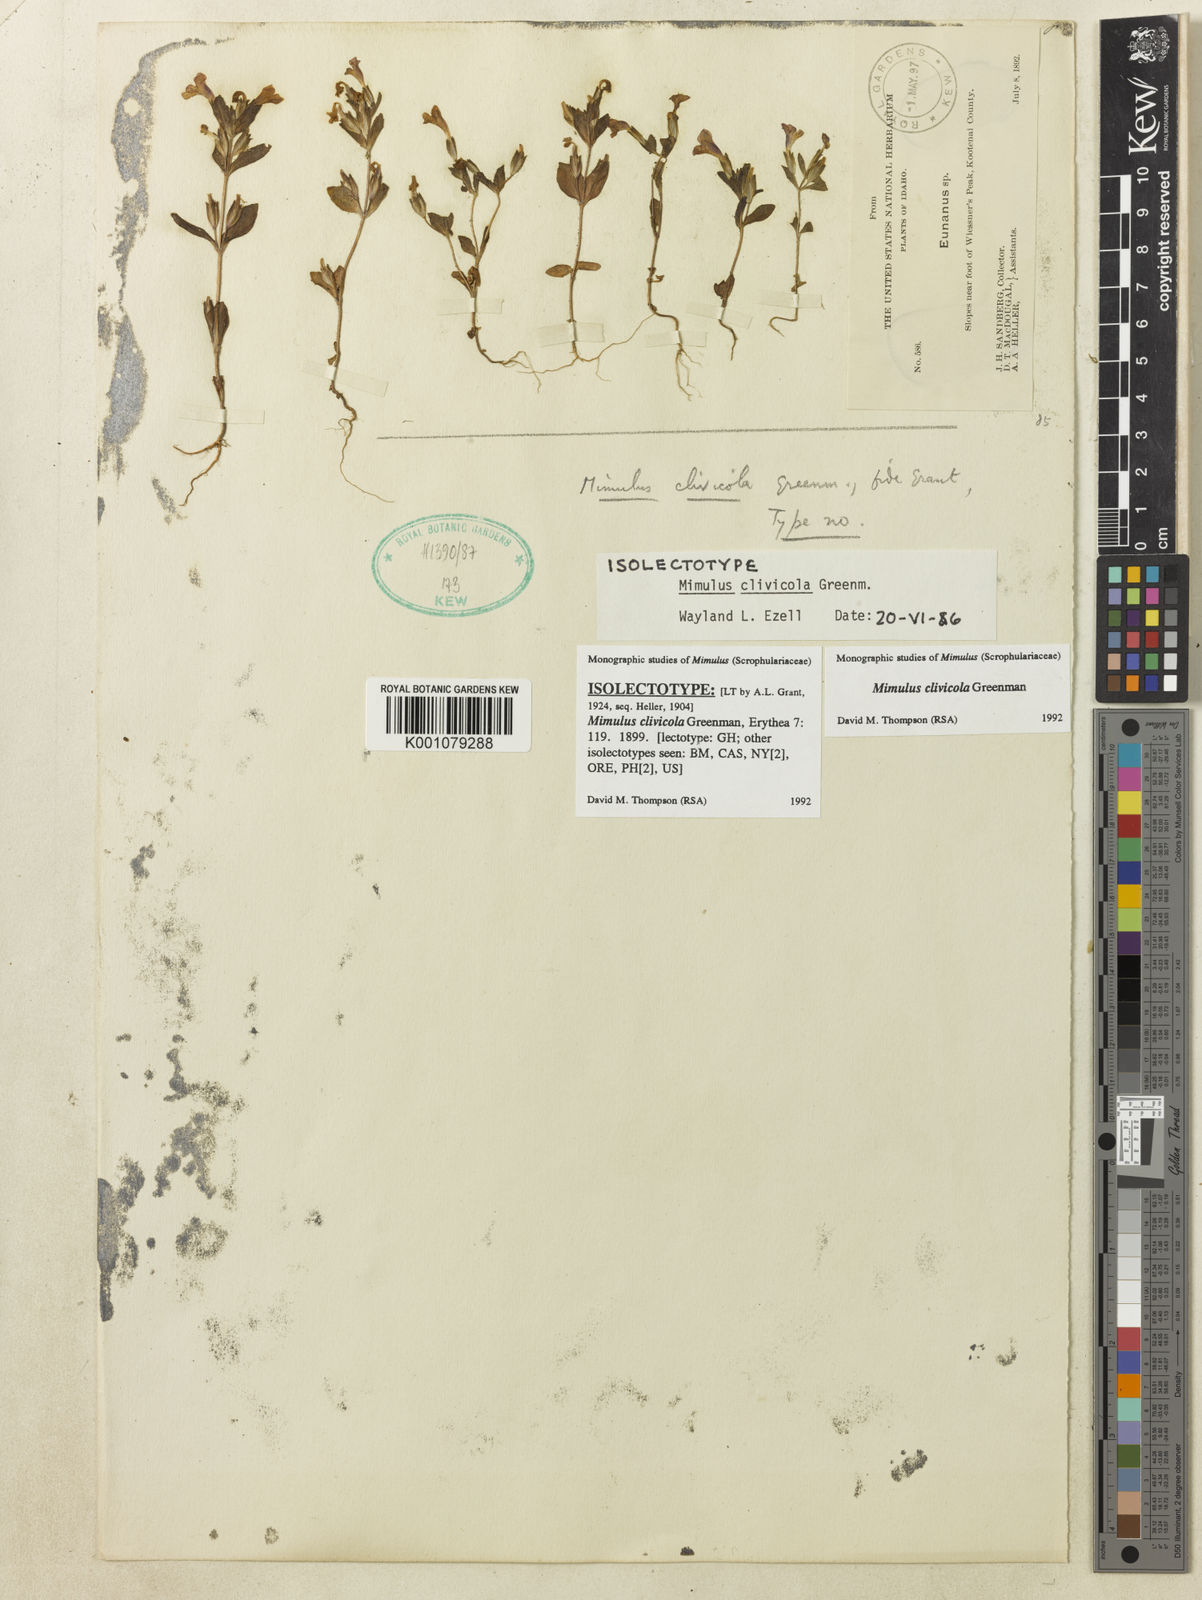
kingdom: Plantae
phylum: Tracheophyta
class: Magnoliopsida
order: Lamiales
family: Phrymaceae
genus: Diplacus
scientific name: Diplacus clivicola
